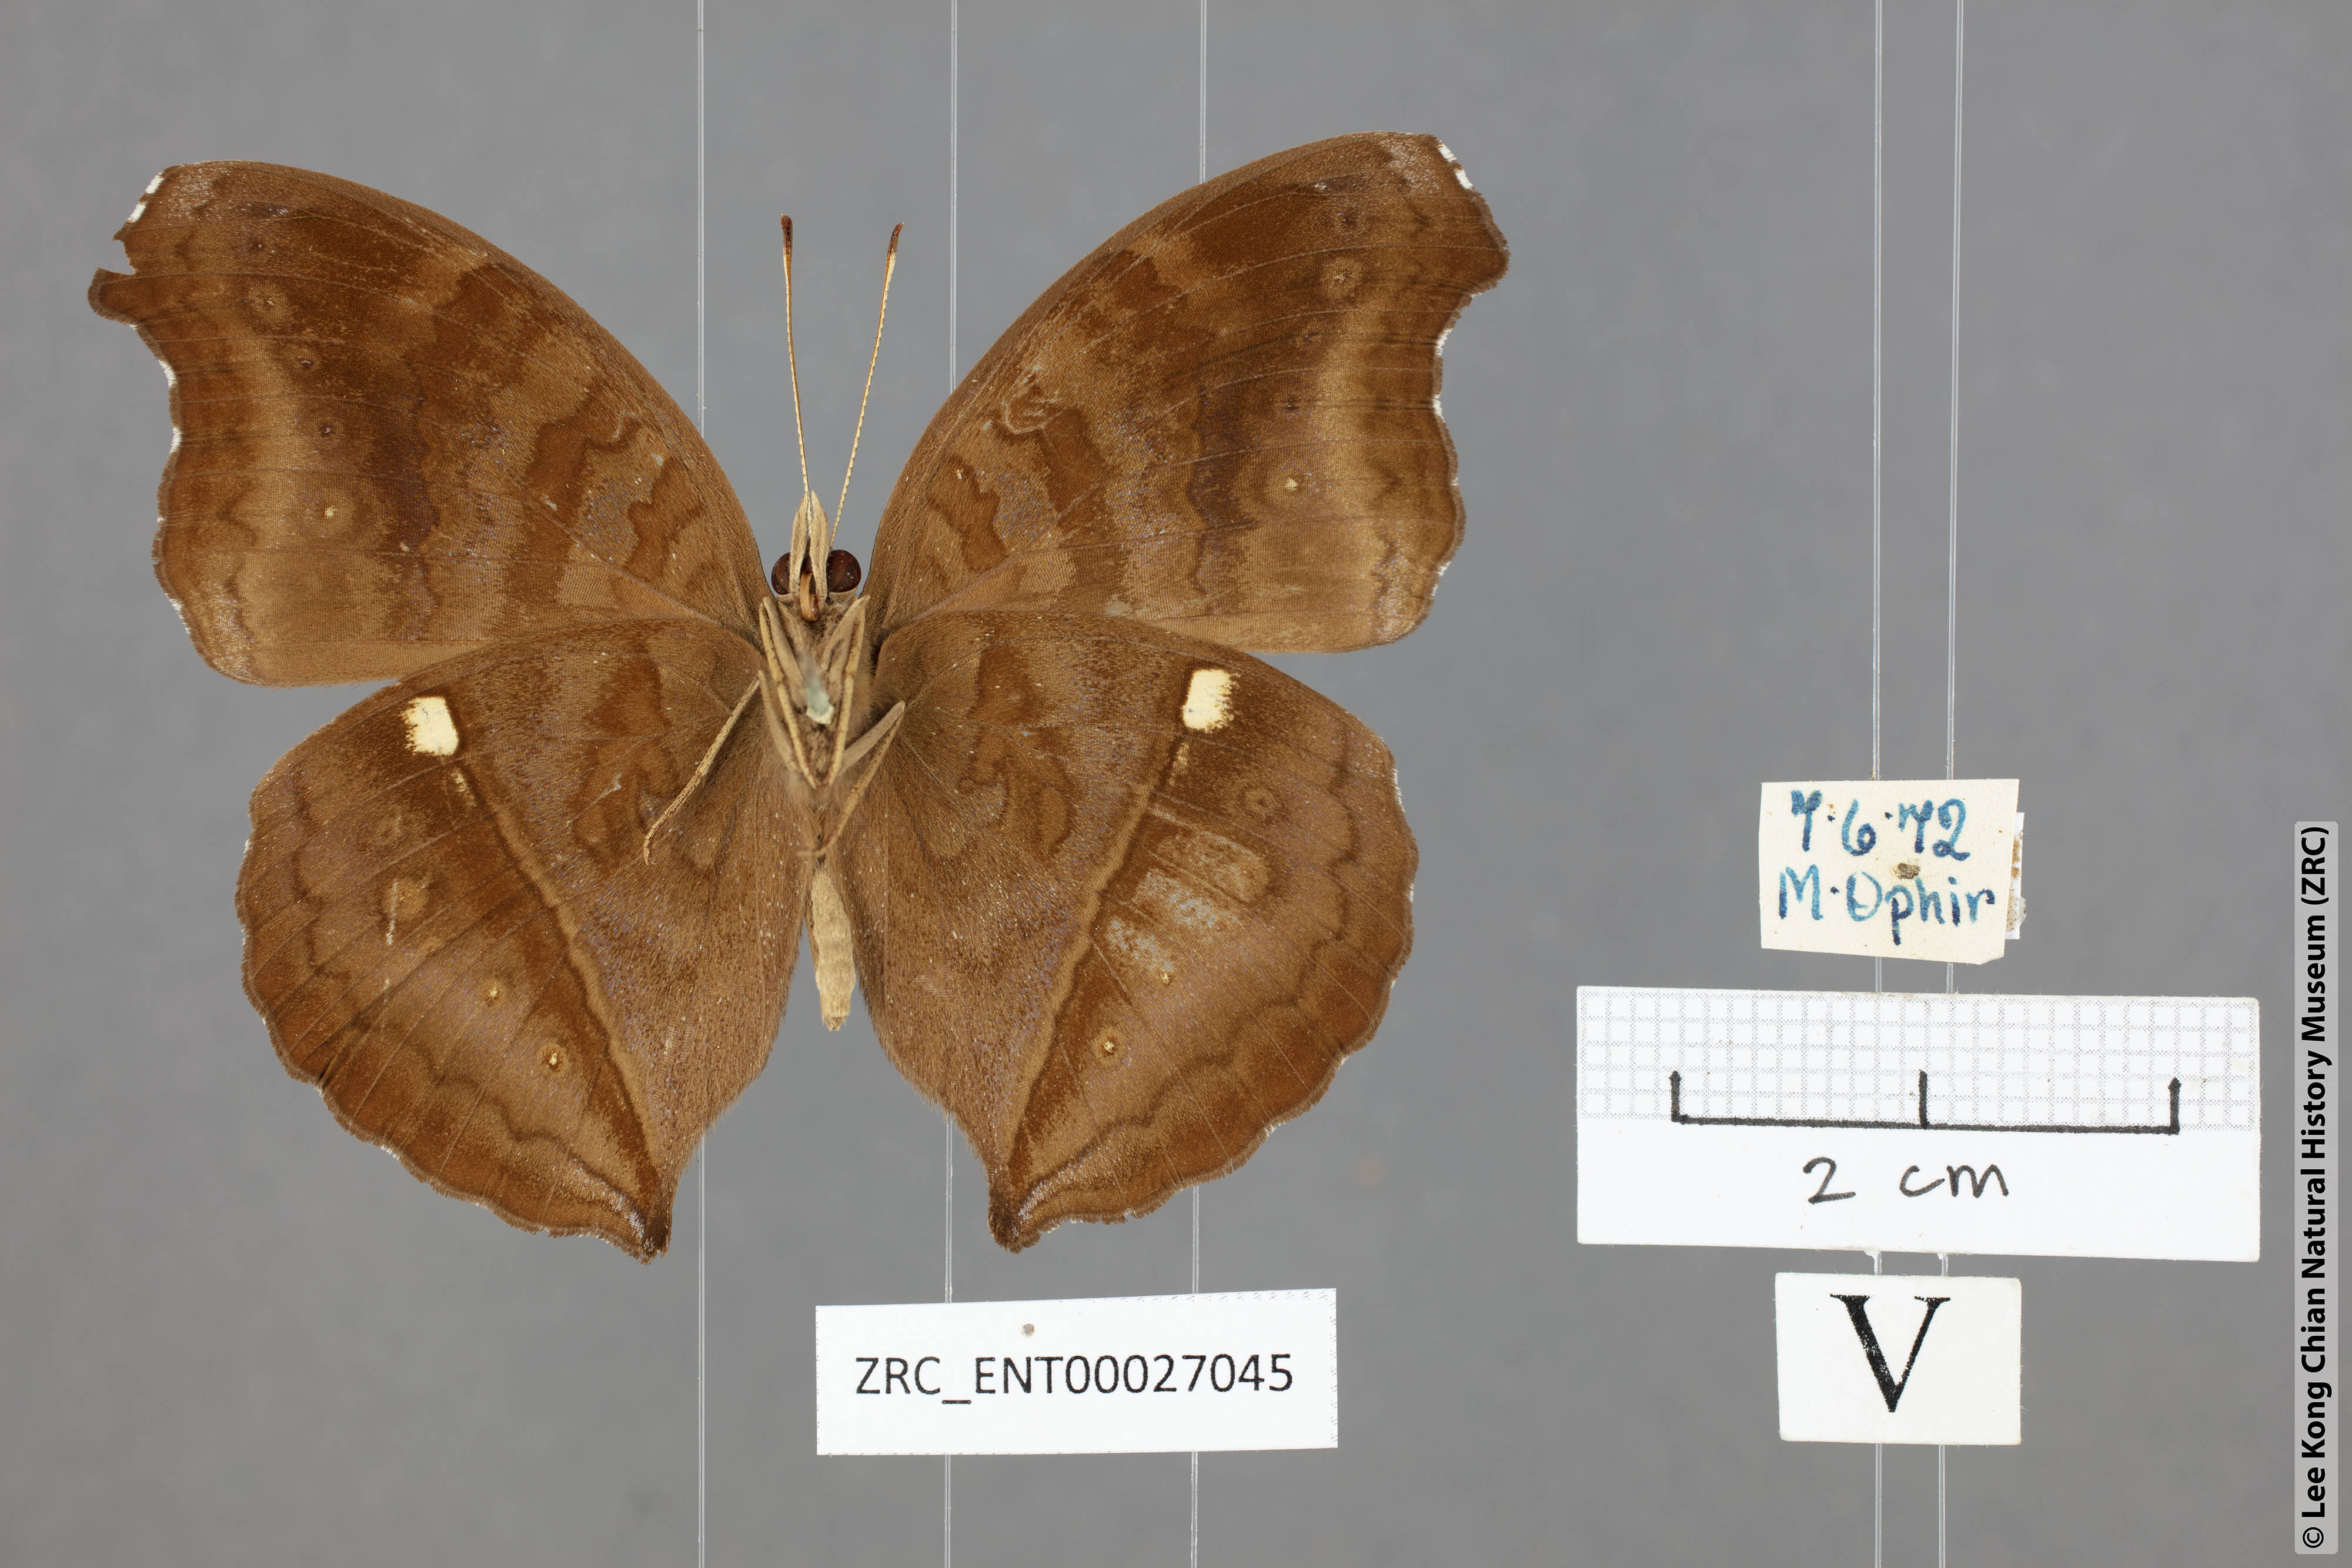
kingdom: Animalia
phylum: Arthropoda
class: Insecta
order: Lepidoptera
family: Nymphalidae
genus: Junonia
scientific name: Junonia iphita
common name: Chocolate pansy
